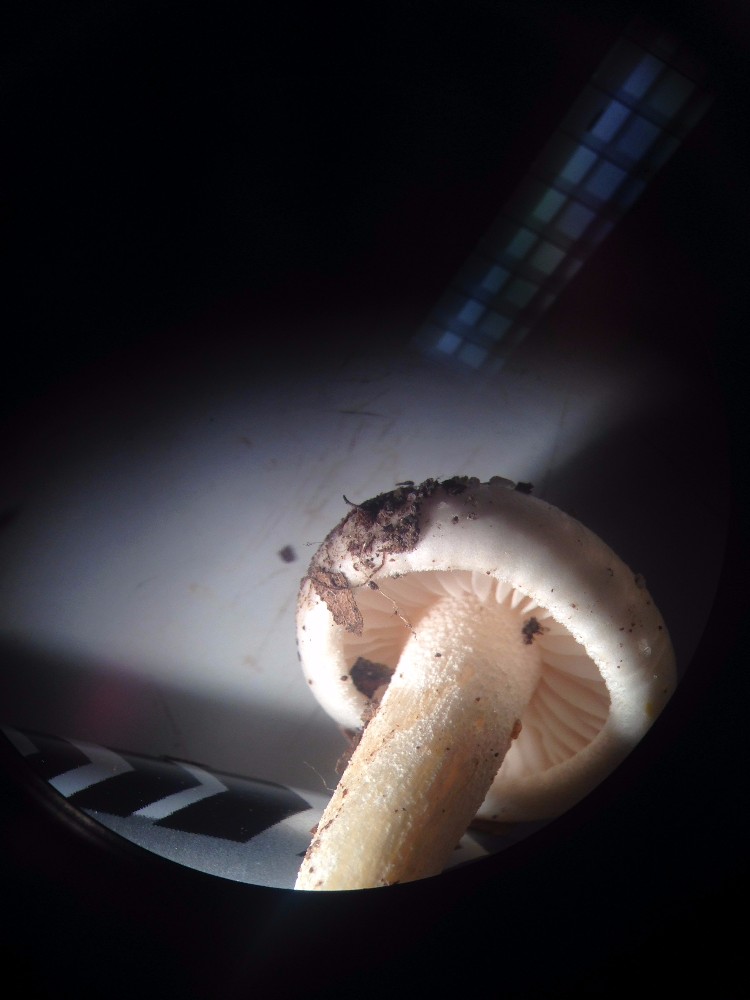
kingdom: Fungi
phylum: Basidiomycota
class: Agaricomycetes
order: Agaricales
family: Hygrophoraceae
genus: Hygrophorus
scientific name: Hygrophorus eburneus
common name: elfenbens-sneglehat
